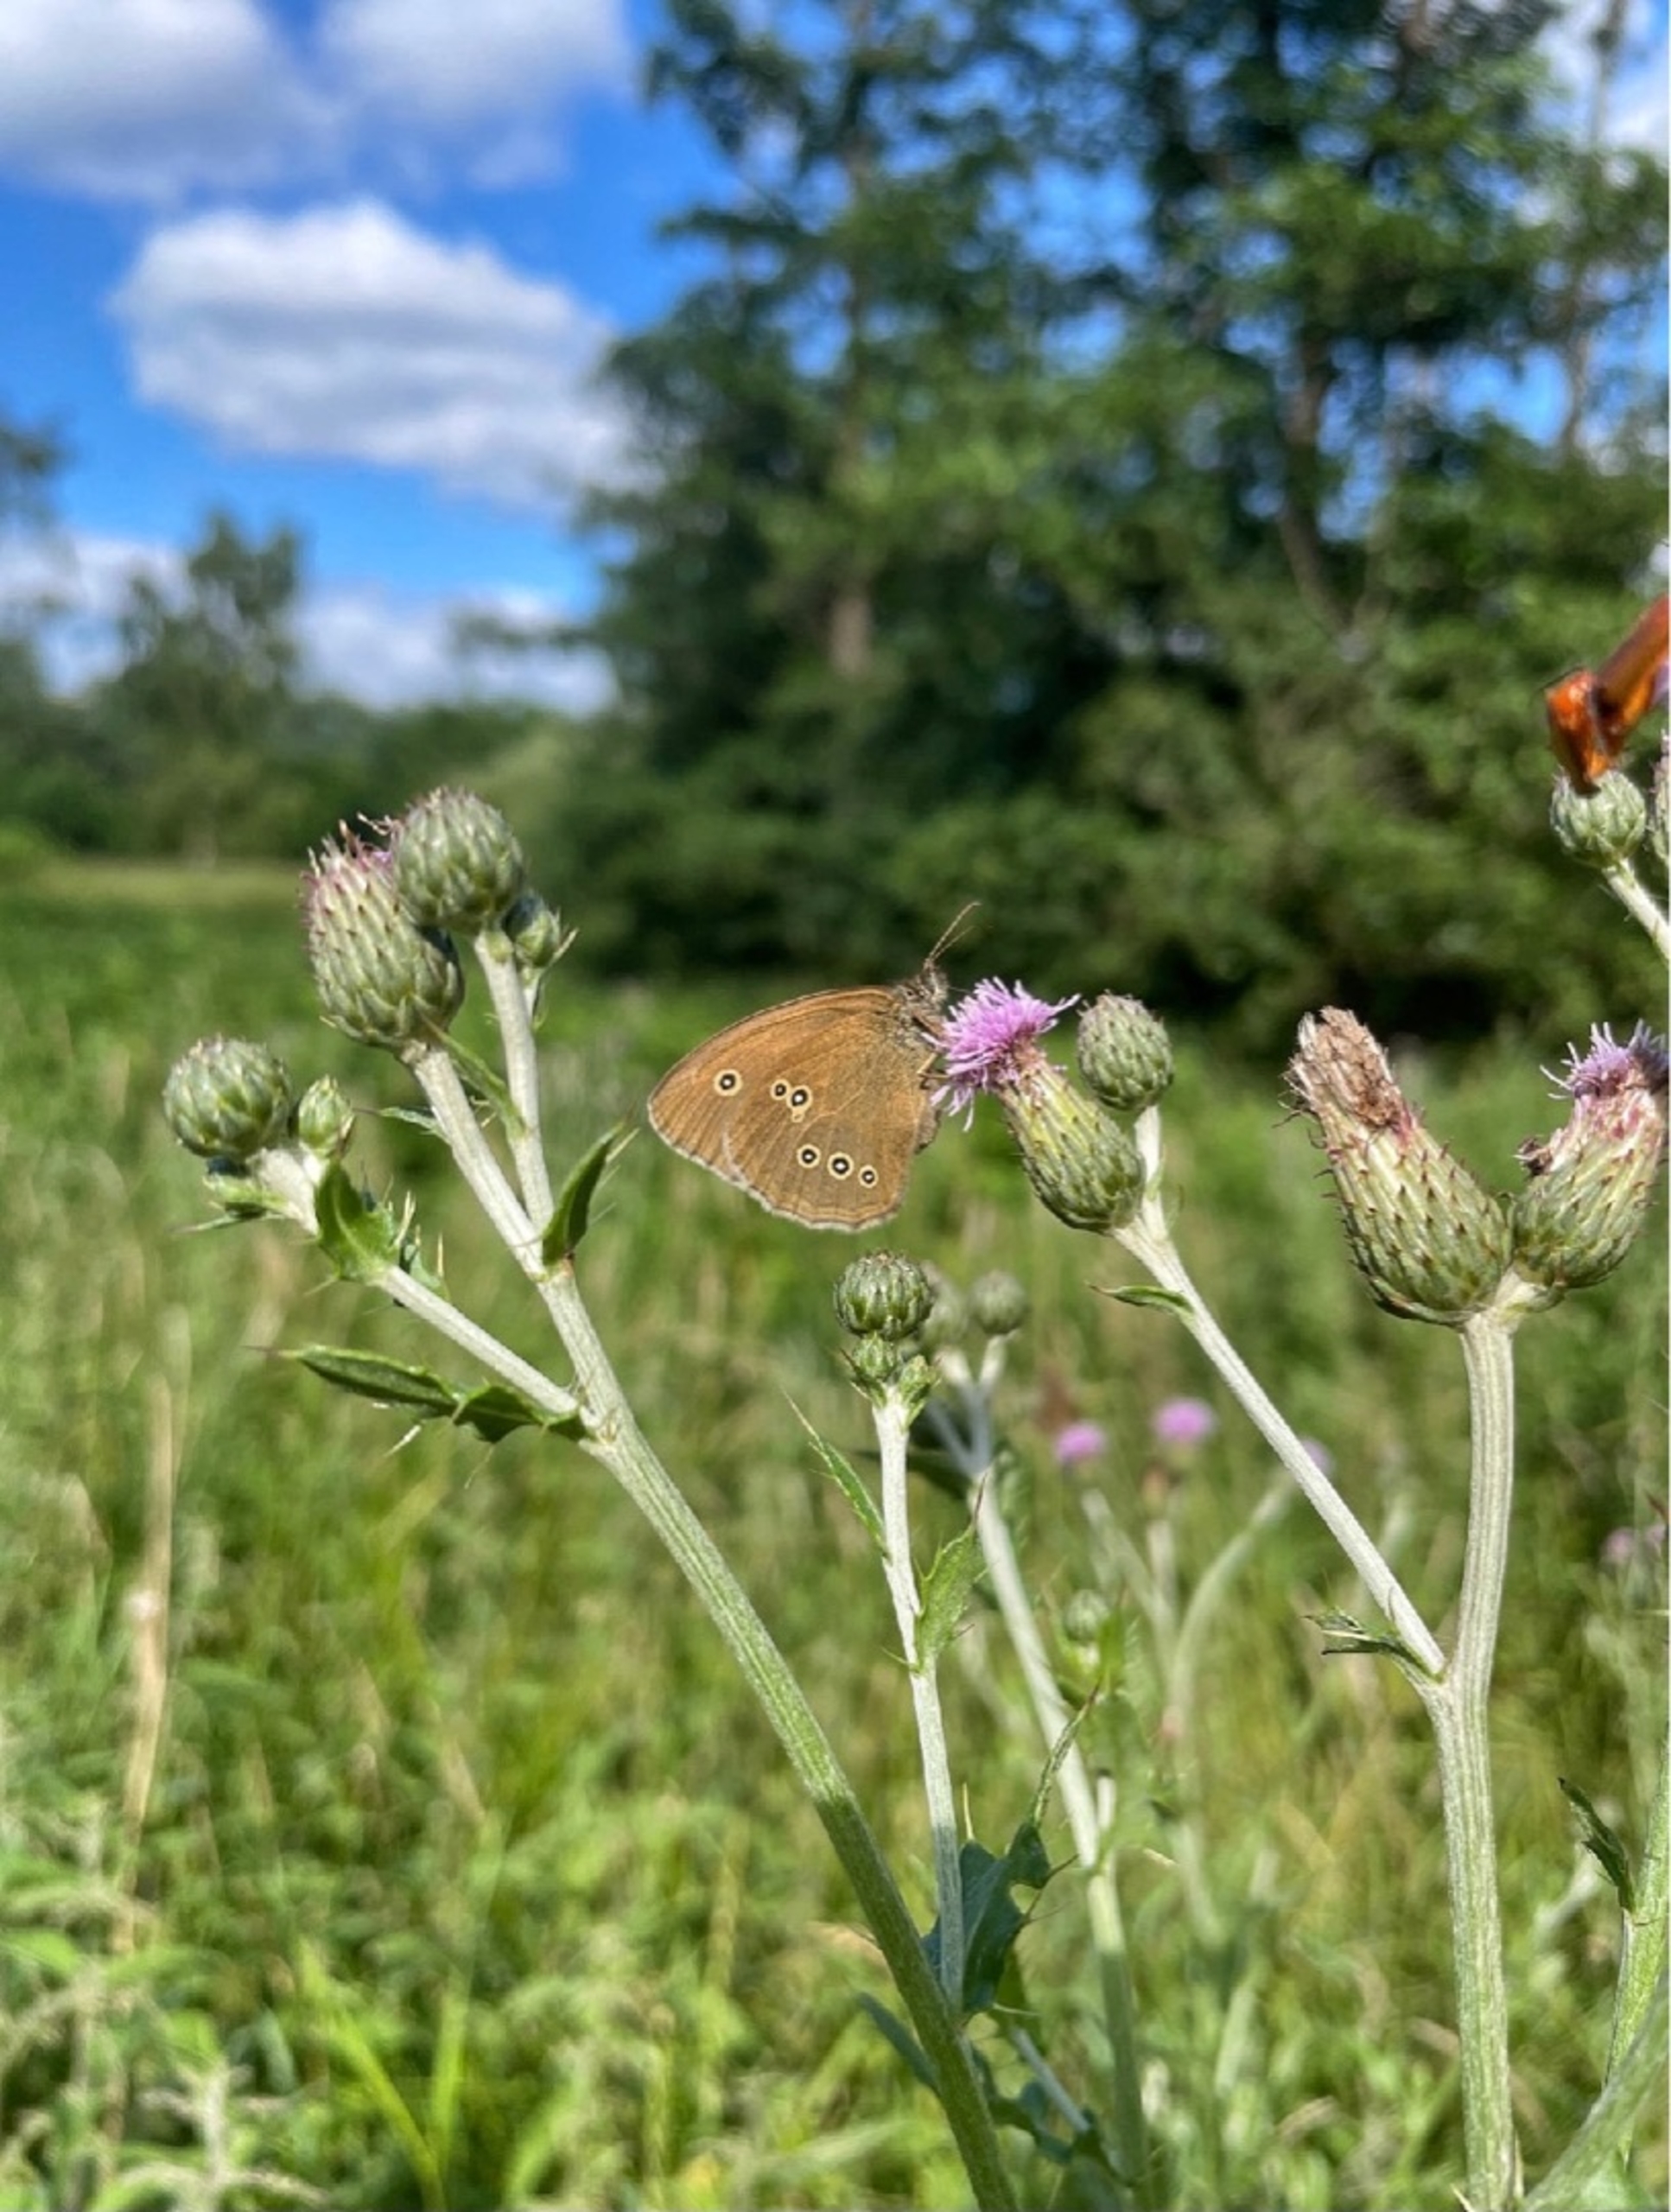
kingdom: Animalia
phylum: Arthropoda
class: Insecta
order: Lepidoptera
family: Nymphalidae
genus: Aphantopus
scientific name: Aphantopus hyperantus
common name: Engrandøje
